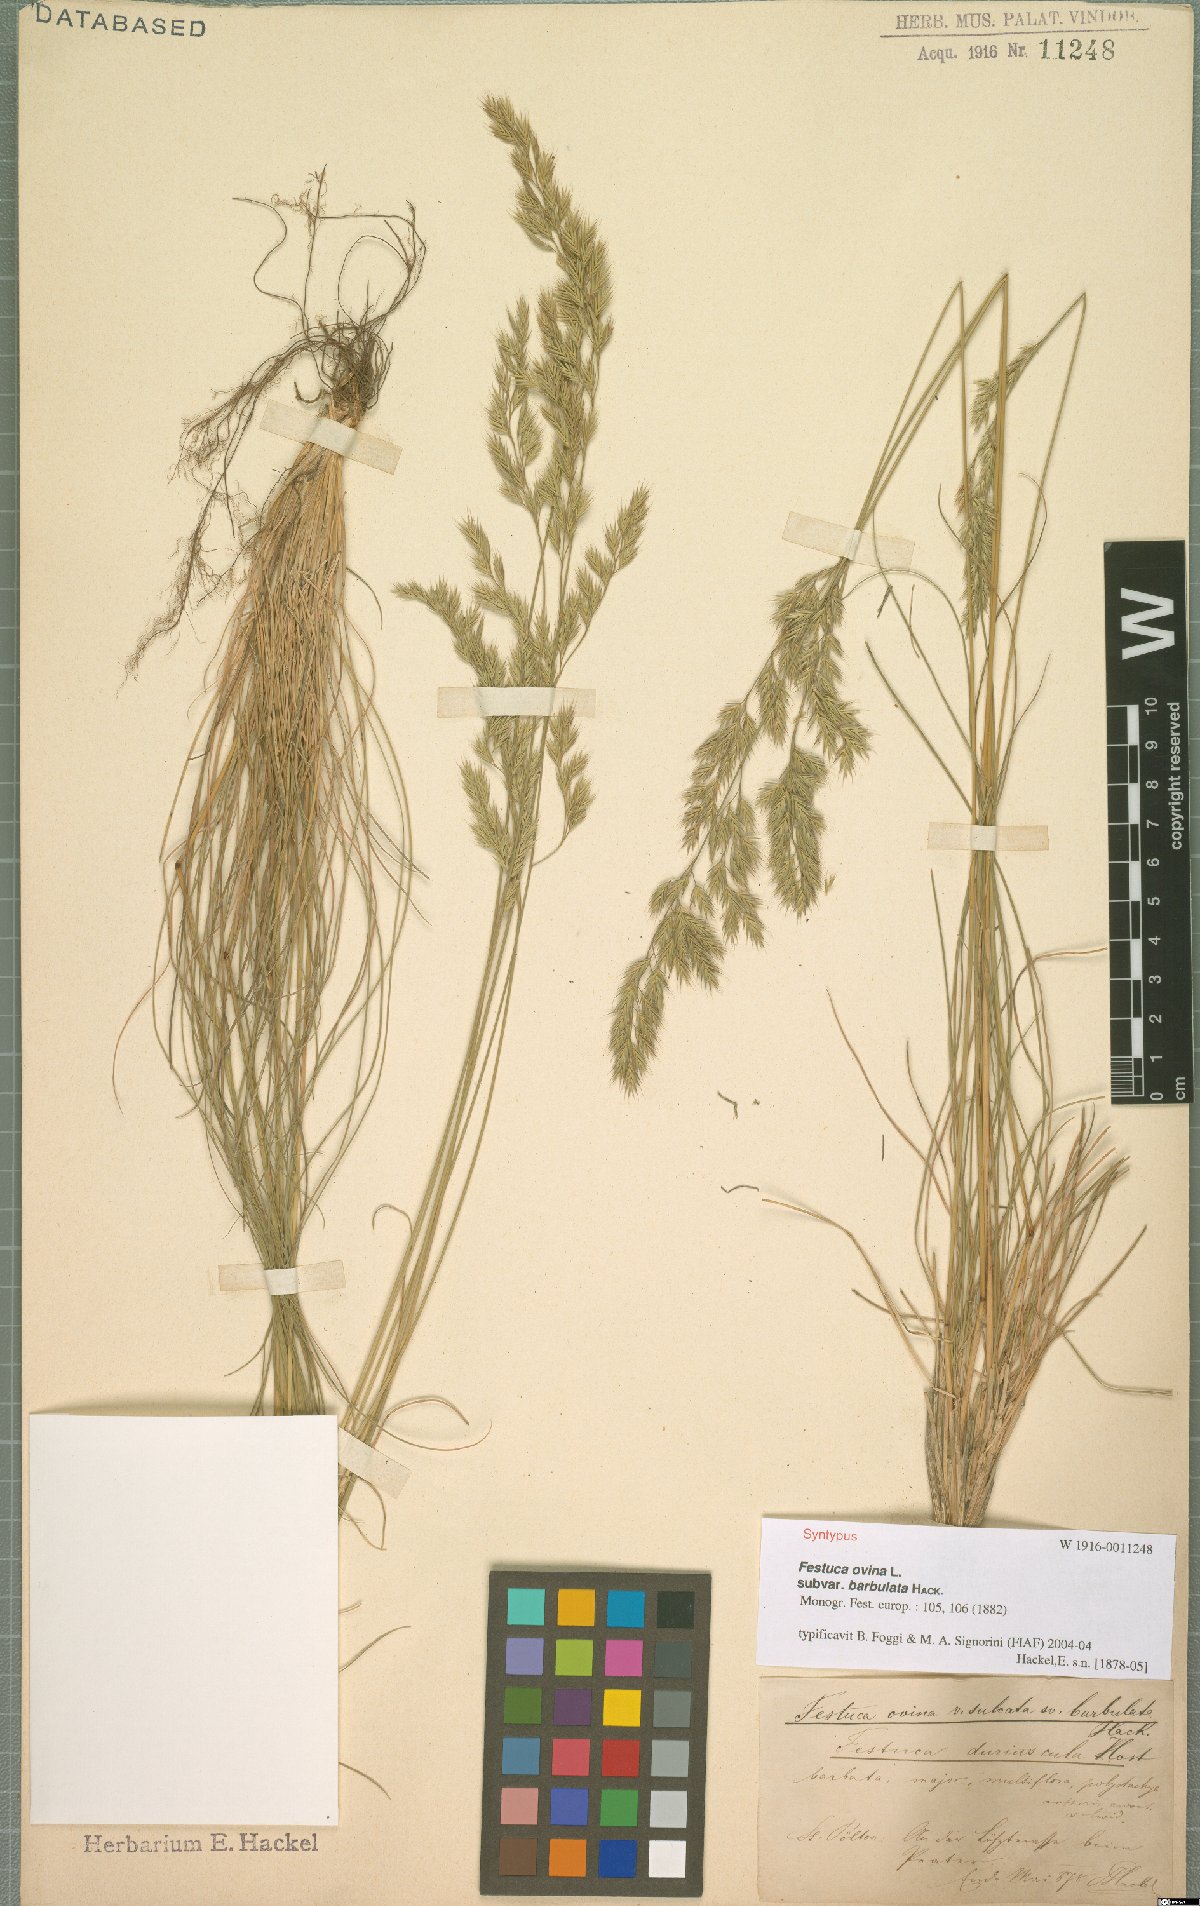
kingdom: Plantae
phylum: Tracheophyta
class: Liliopsida
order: Poales
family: Poaceae
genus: Festuca
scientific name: Festuca ovina
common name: Sheep fescue
